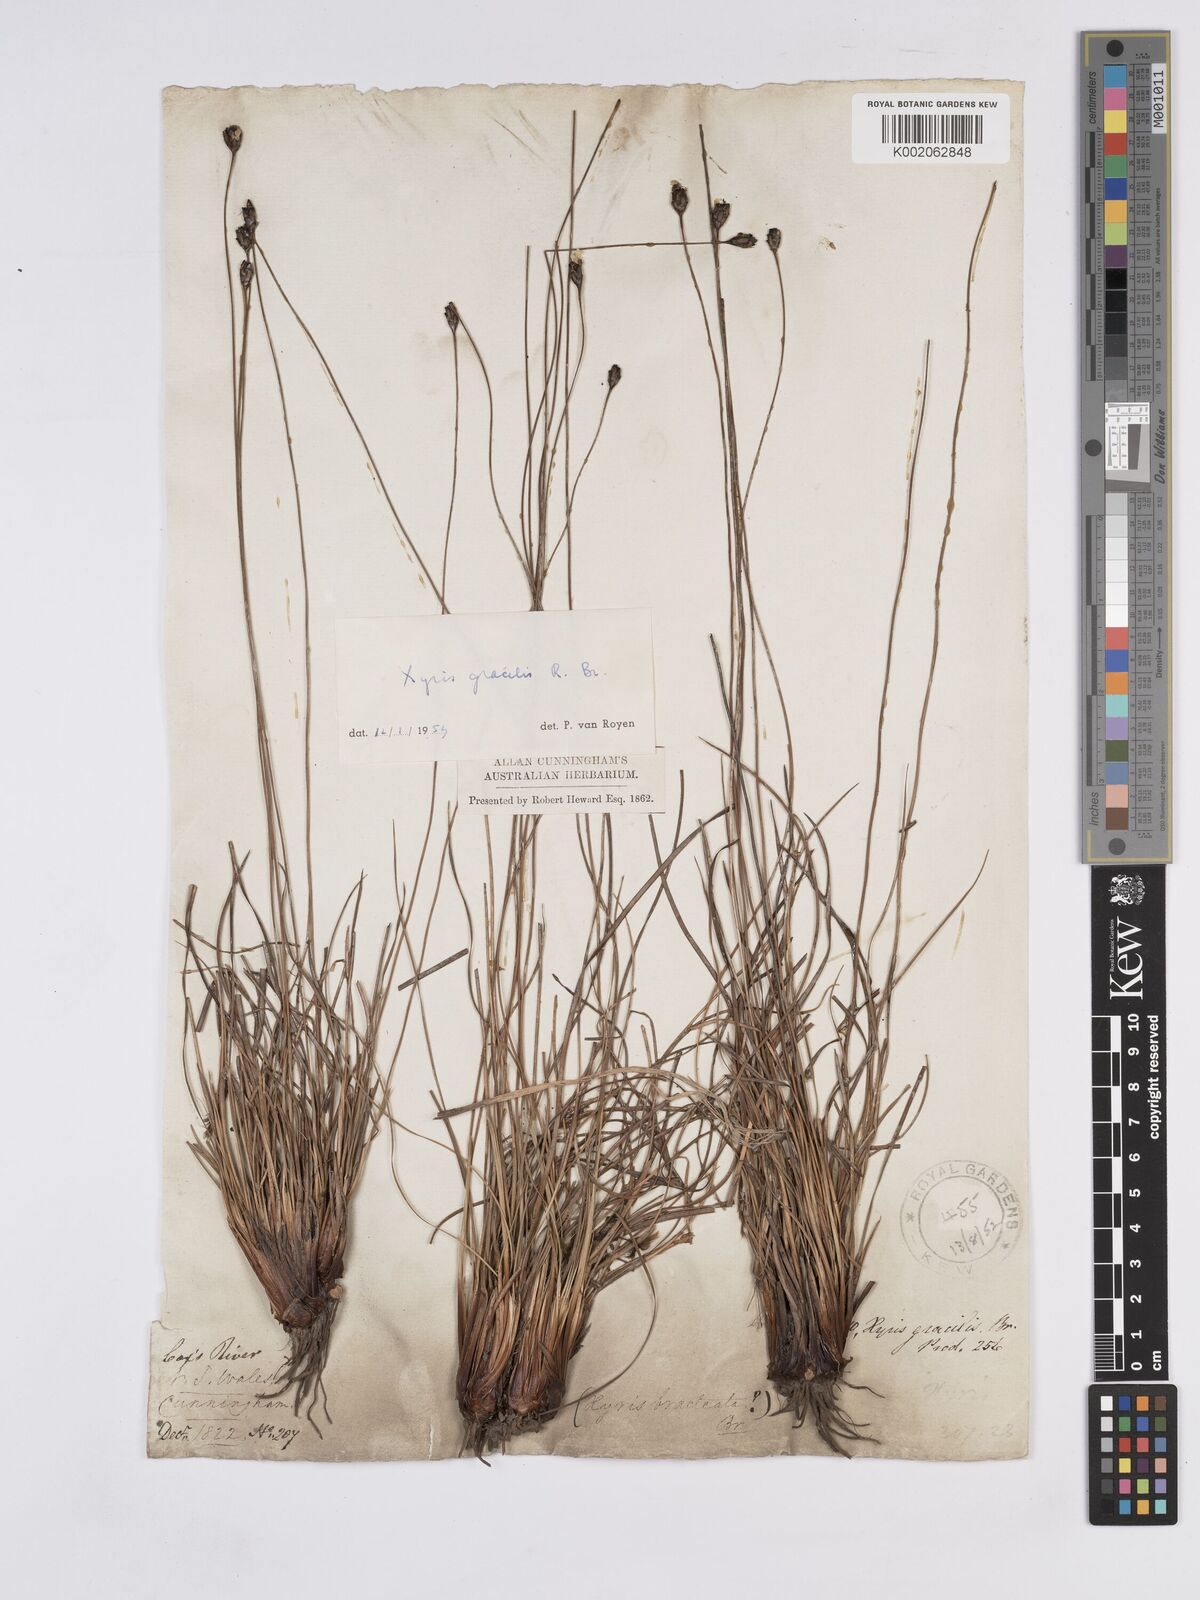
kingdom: Plantae
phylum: Tracheophyta
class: Liliopsida
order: Poales
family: Xyridaceae
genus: Xyris
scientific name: Xyris gracilis
